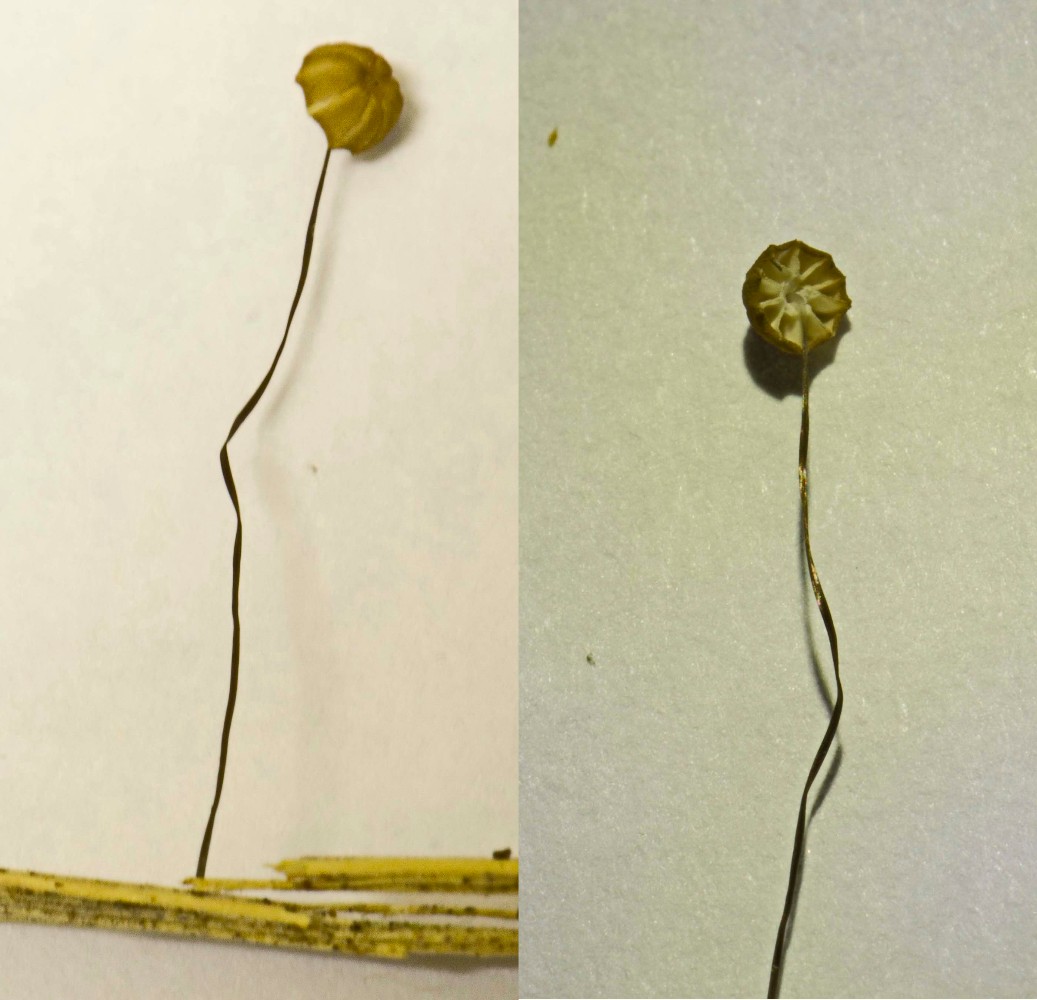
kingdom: Fungi
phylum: Basidiomycota
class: Agaricomycetes
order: Agaricales
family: Marasmiaceae
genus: Marasmius
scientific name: Marasmius limosus
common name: kær-bruskhat
